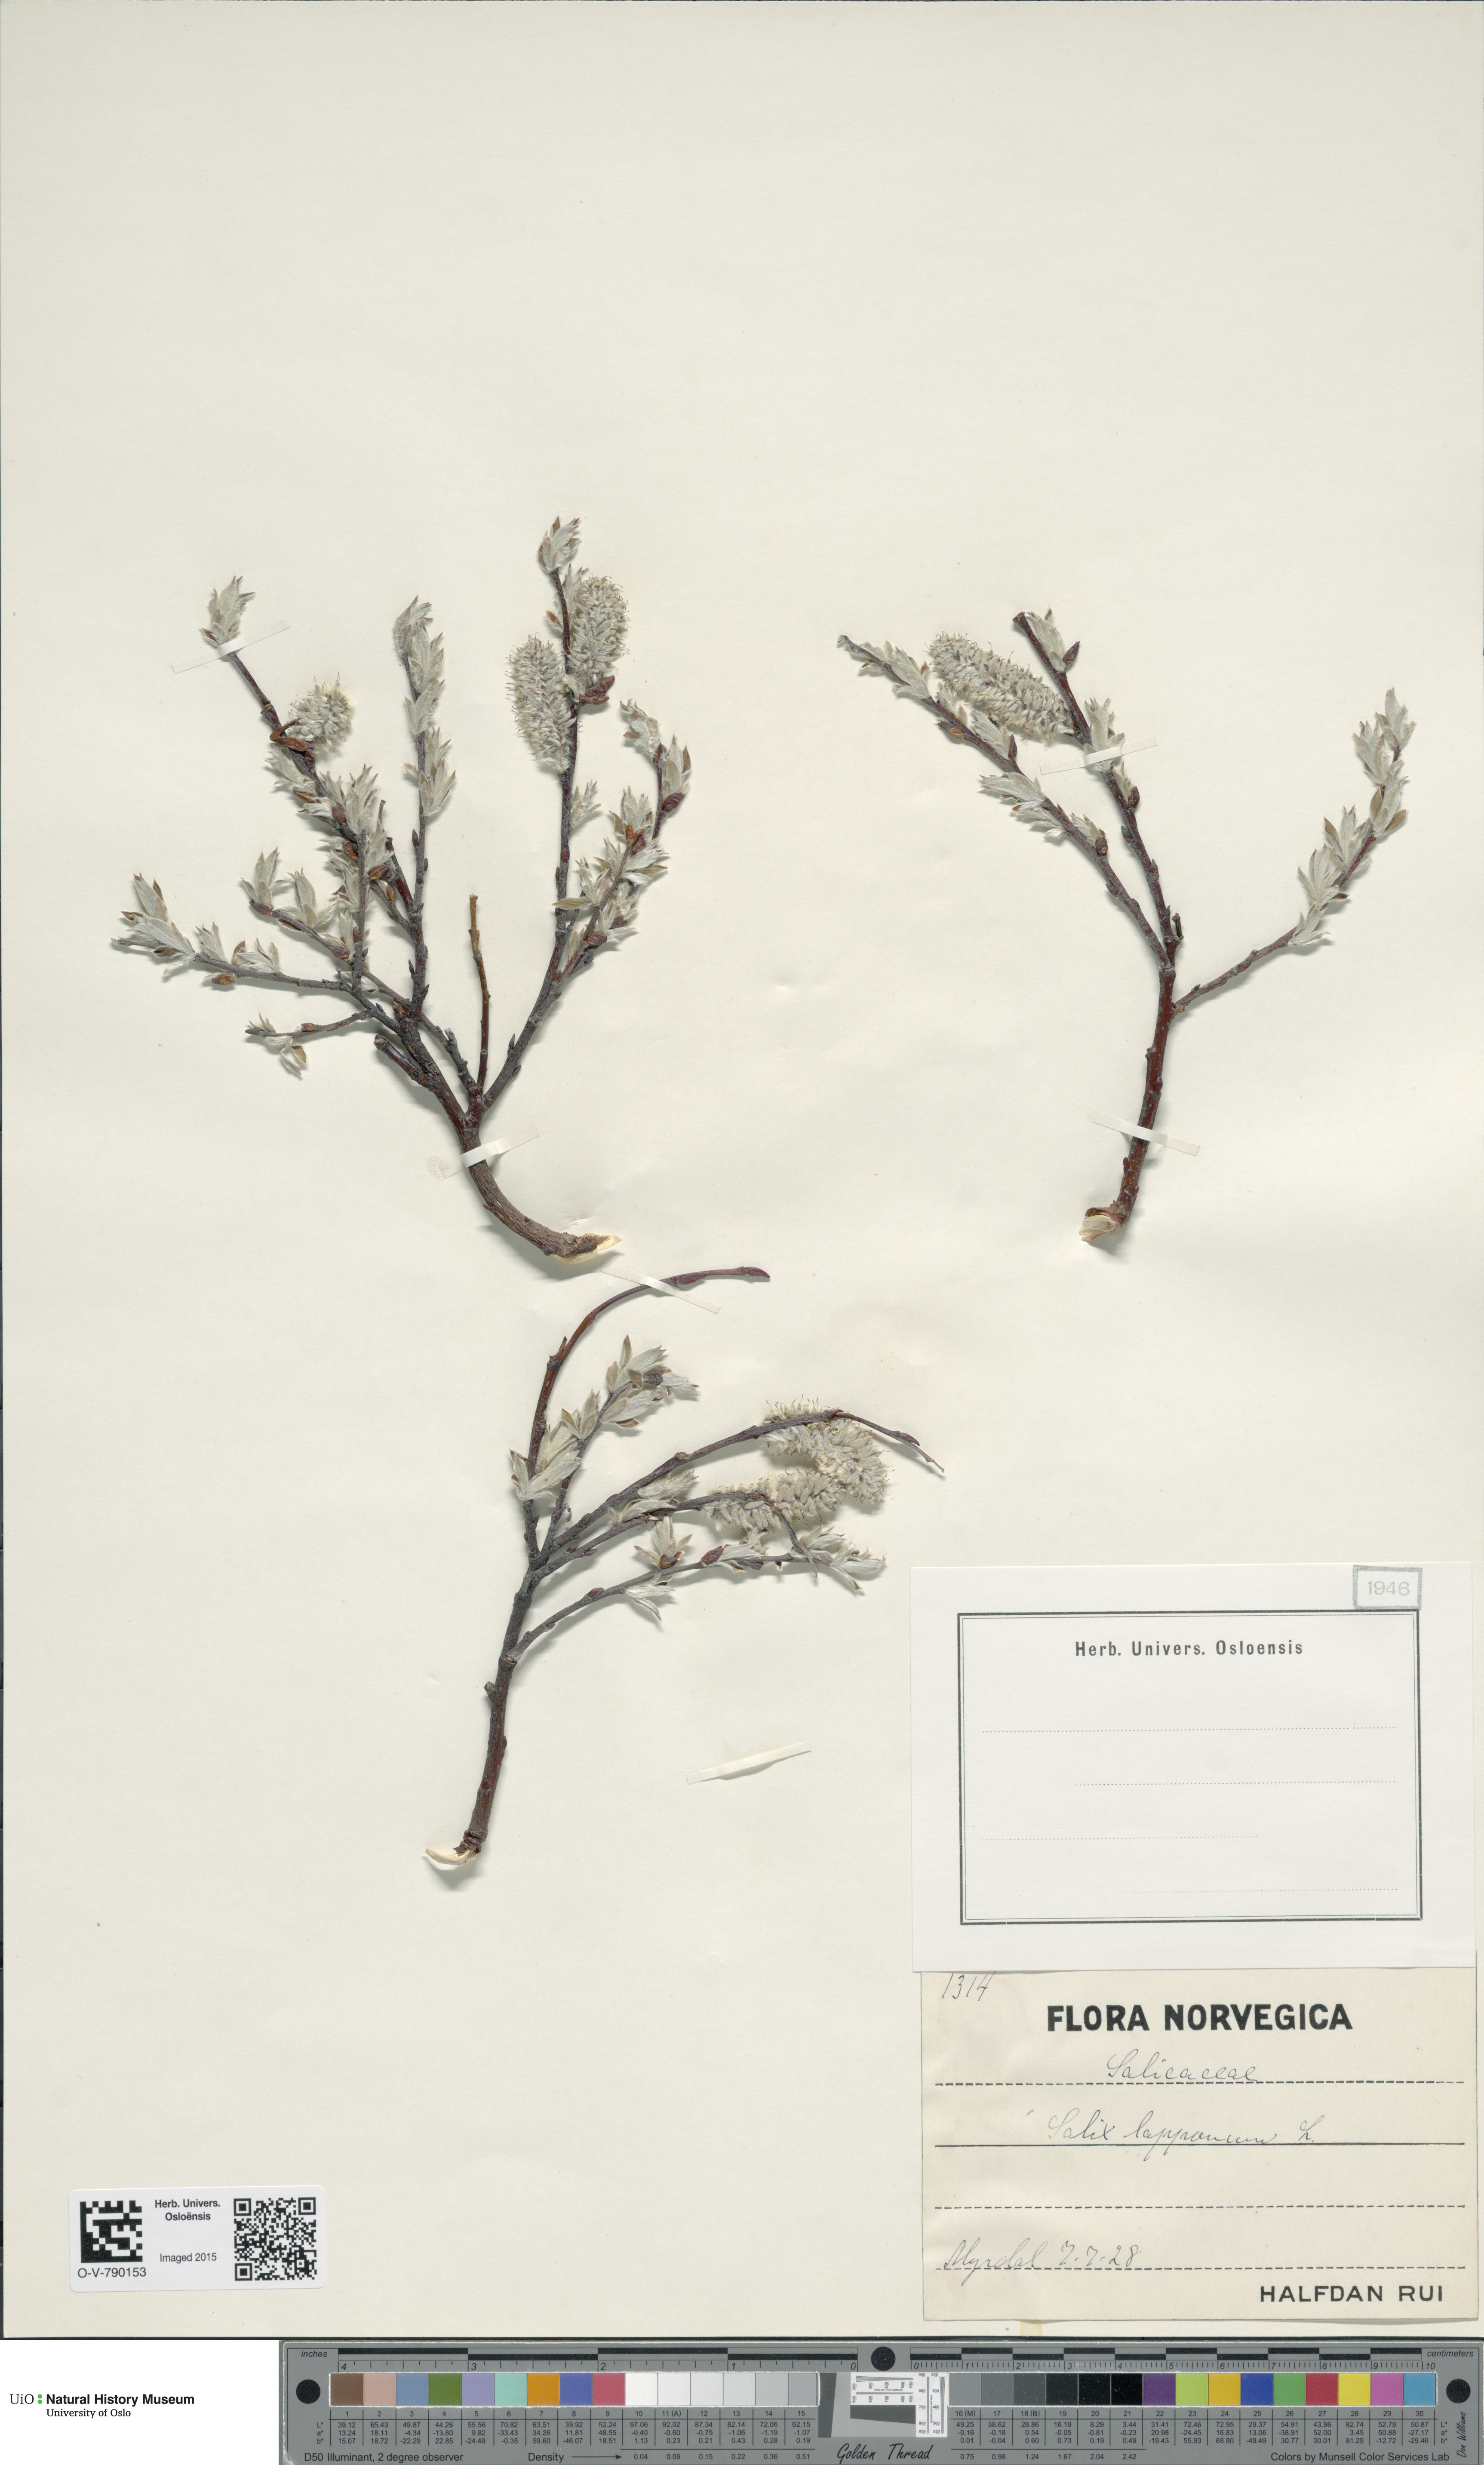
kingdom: Plantae
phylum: Tracheophyta
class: Magnoliopsida
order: Malpighiales
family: Salicaceae
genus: Salix
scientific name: Salix lapponum
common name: Downy willow
